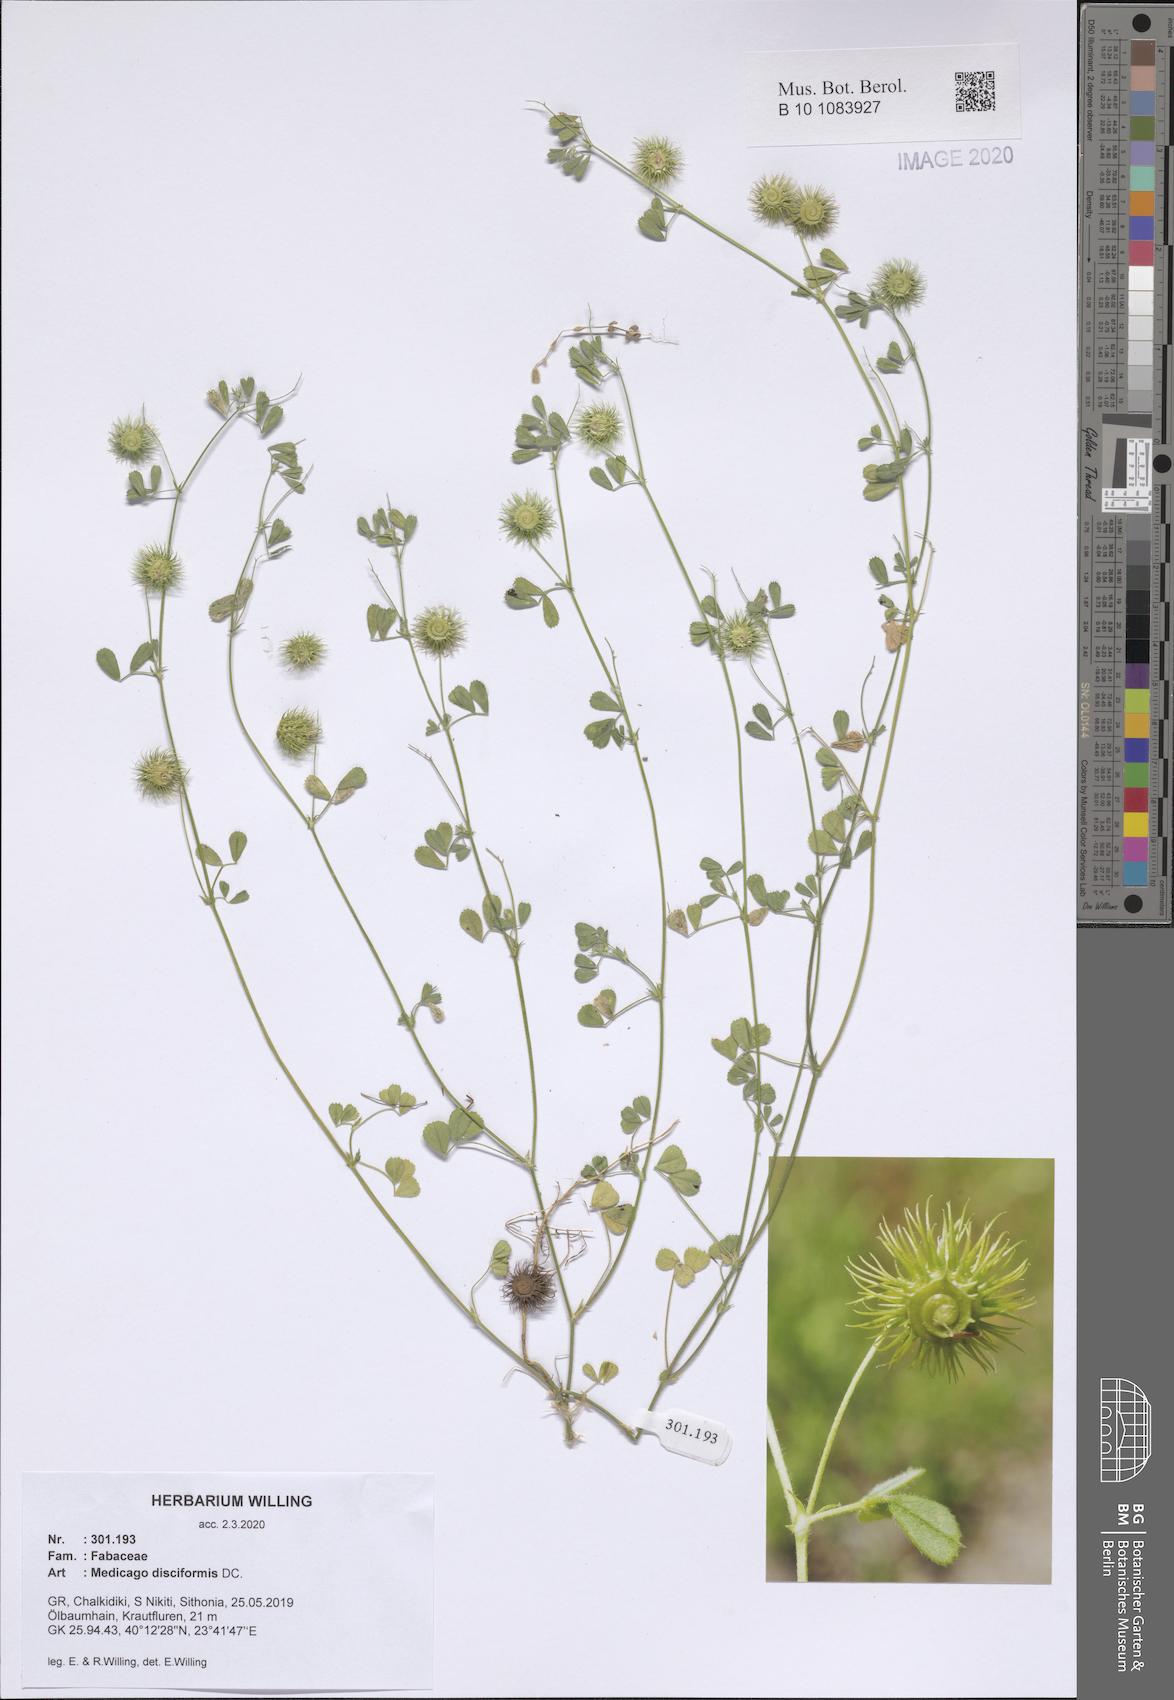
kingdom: Plantae
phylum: Tracheophyta
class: Magnoliopsida
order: Fabales
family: Fabaceae
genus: Medicago
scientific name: Medicago disciformis
